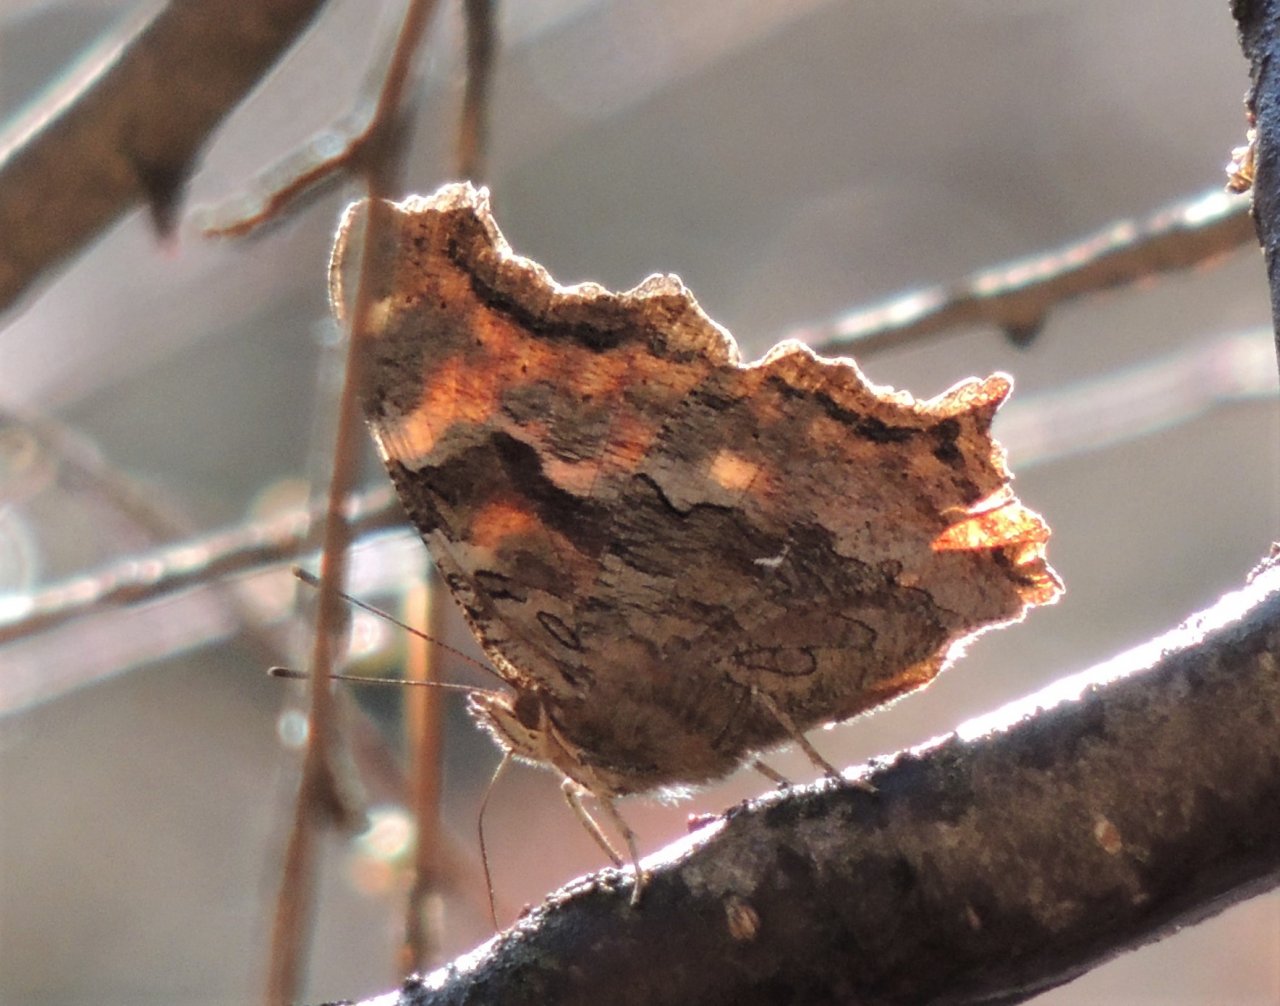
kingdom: Animalia
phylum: Arthropoda
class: Insecta
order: Lepidoptera
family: Nymphalidae
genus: Polygonia
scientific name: Polygonia vaualbum
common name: Compton Tortoiseshell
